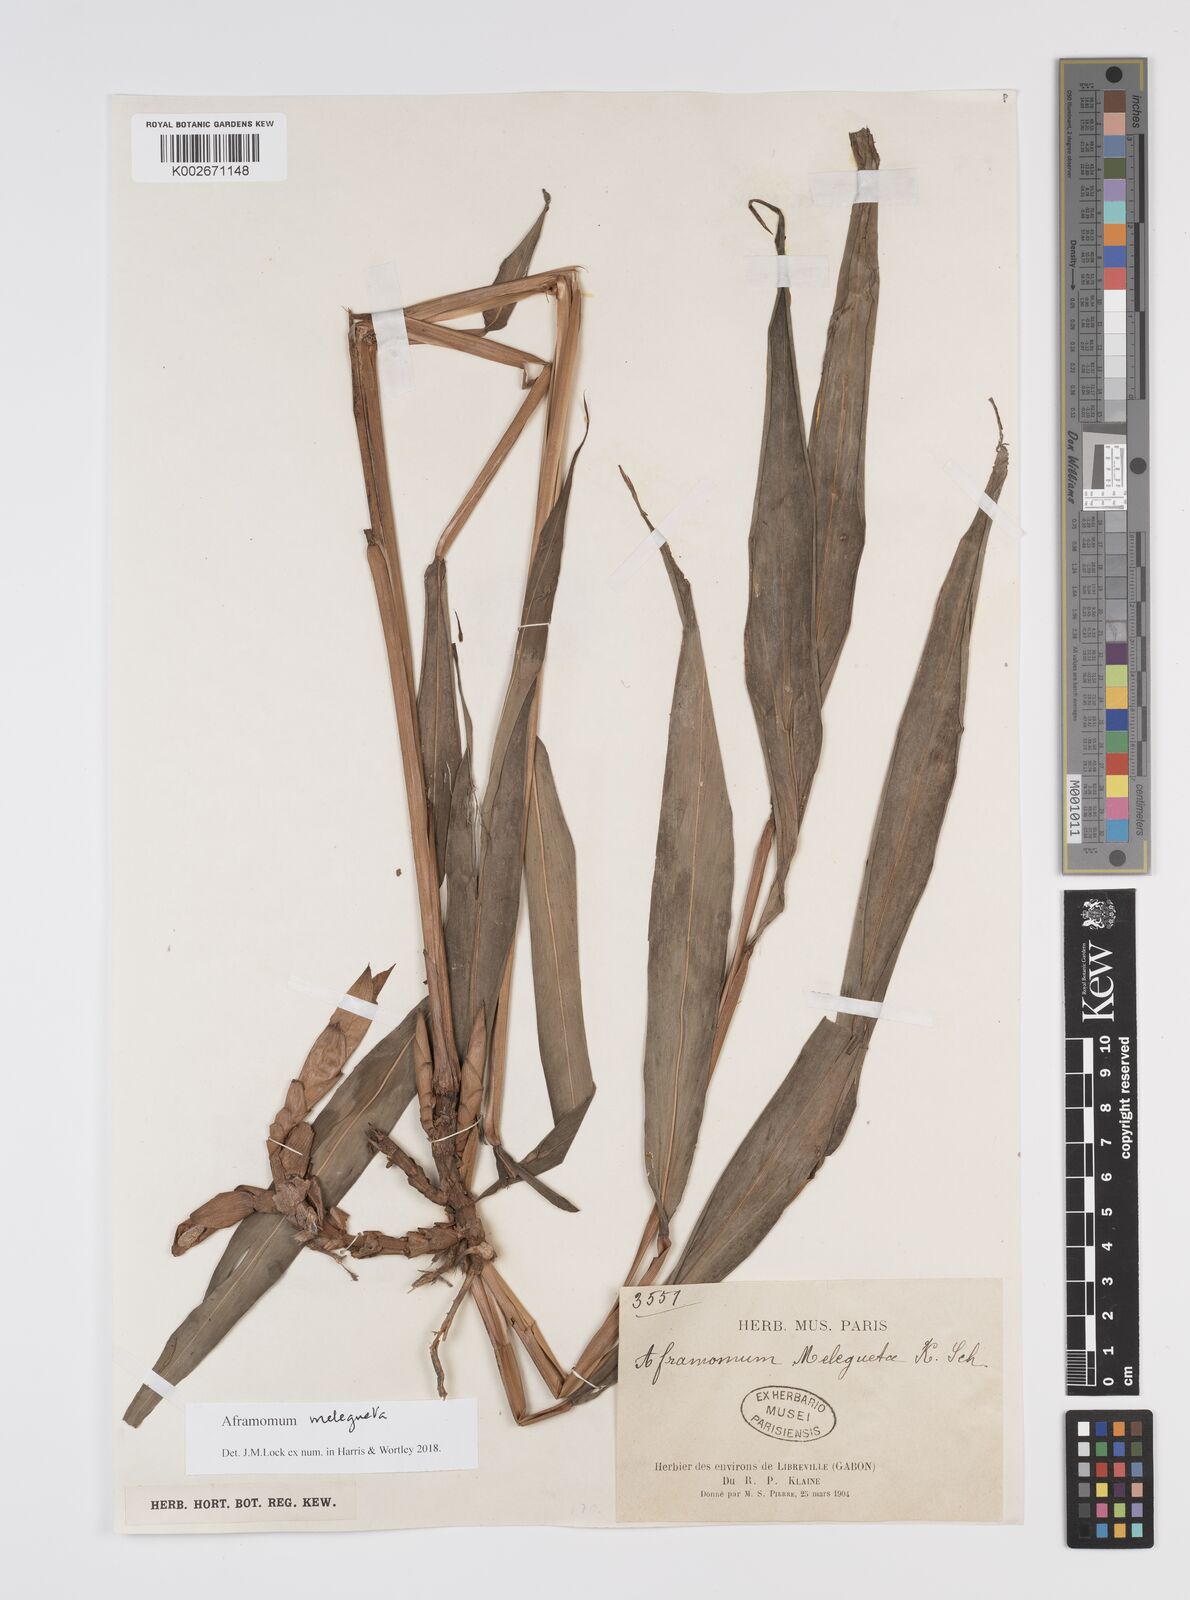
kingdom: Plantae
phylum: Tracheophyta
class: Liliopsida
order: Zingiberales
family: Zingiberaceae
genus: Aframomum
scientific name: Aframomum melegueta
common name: Grains of paradise
